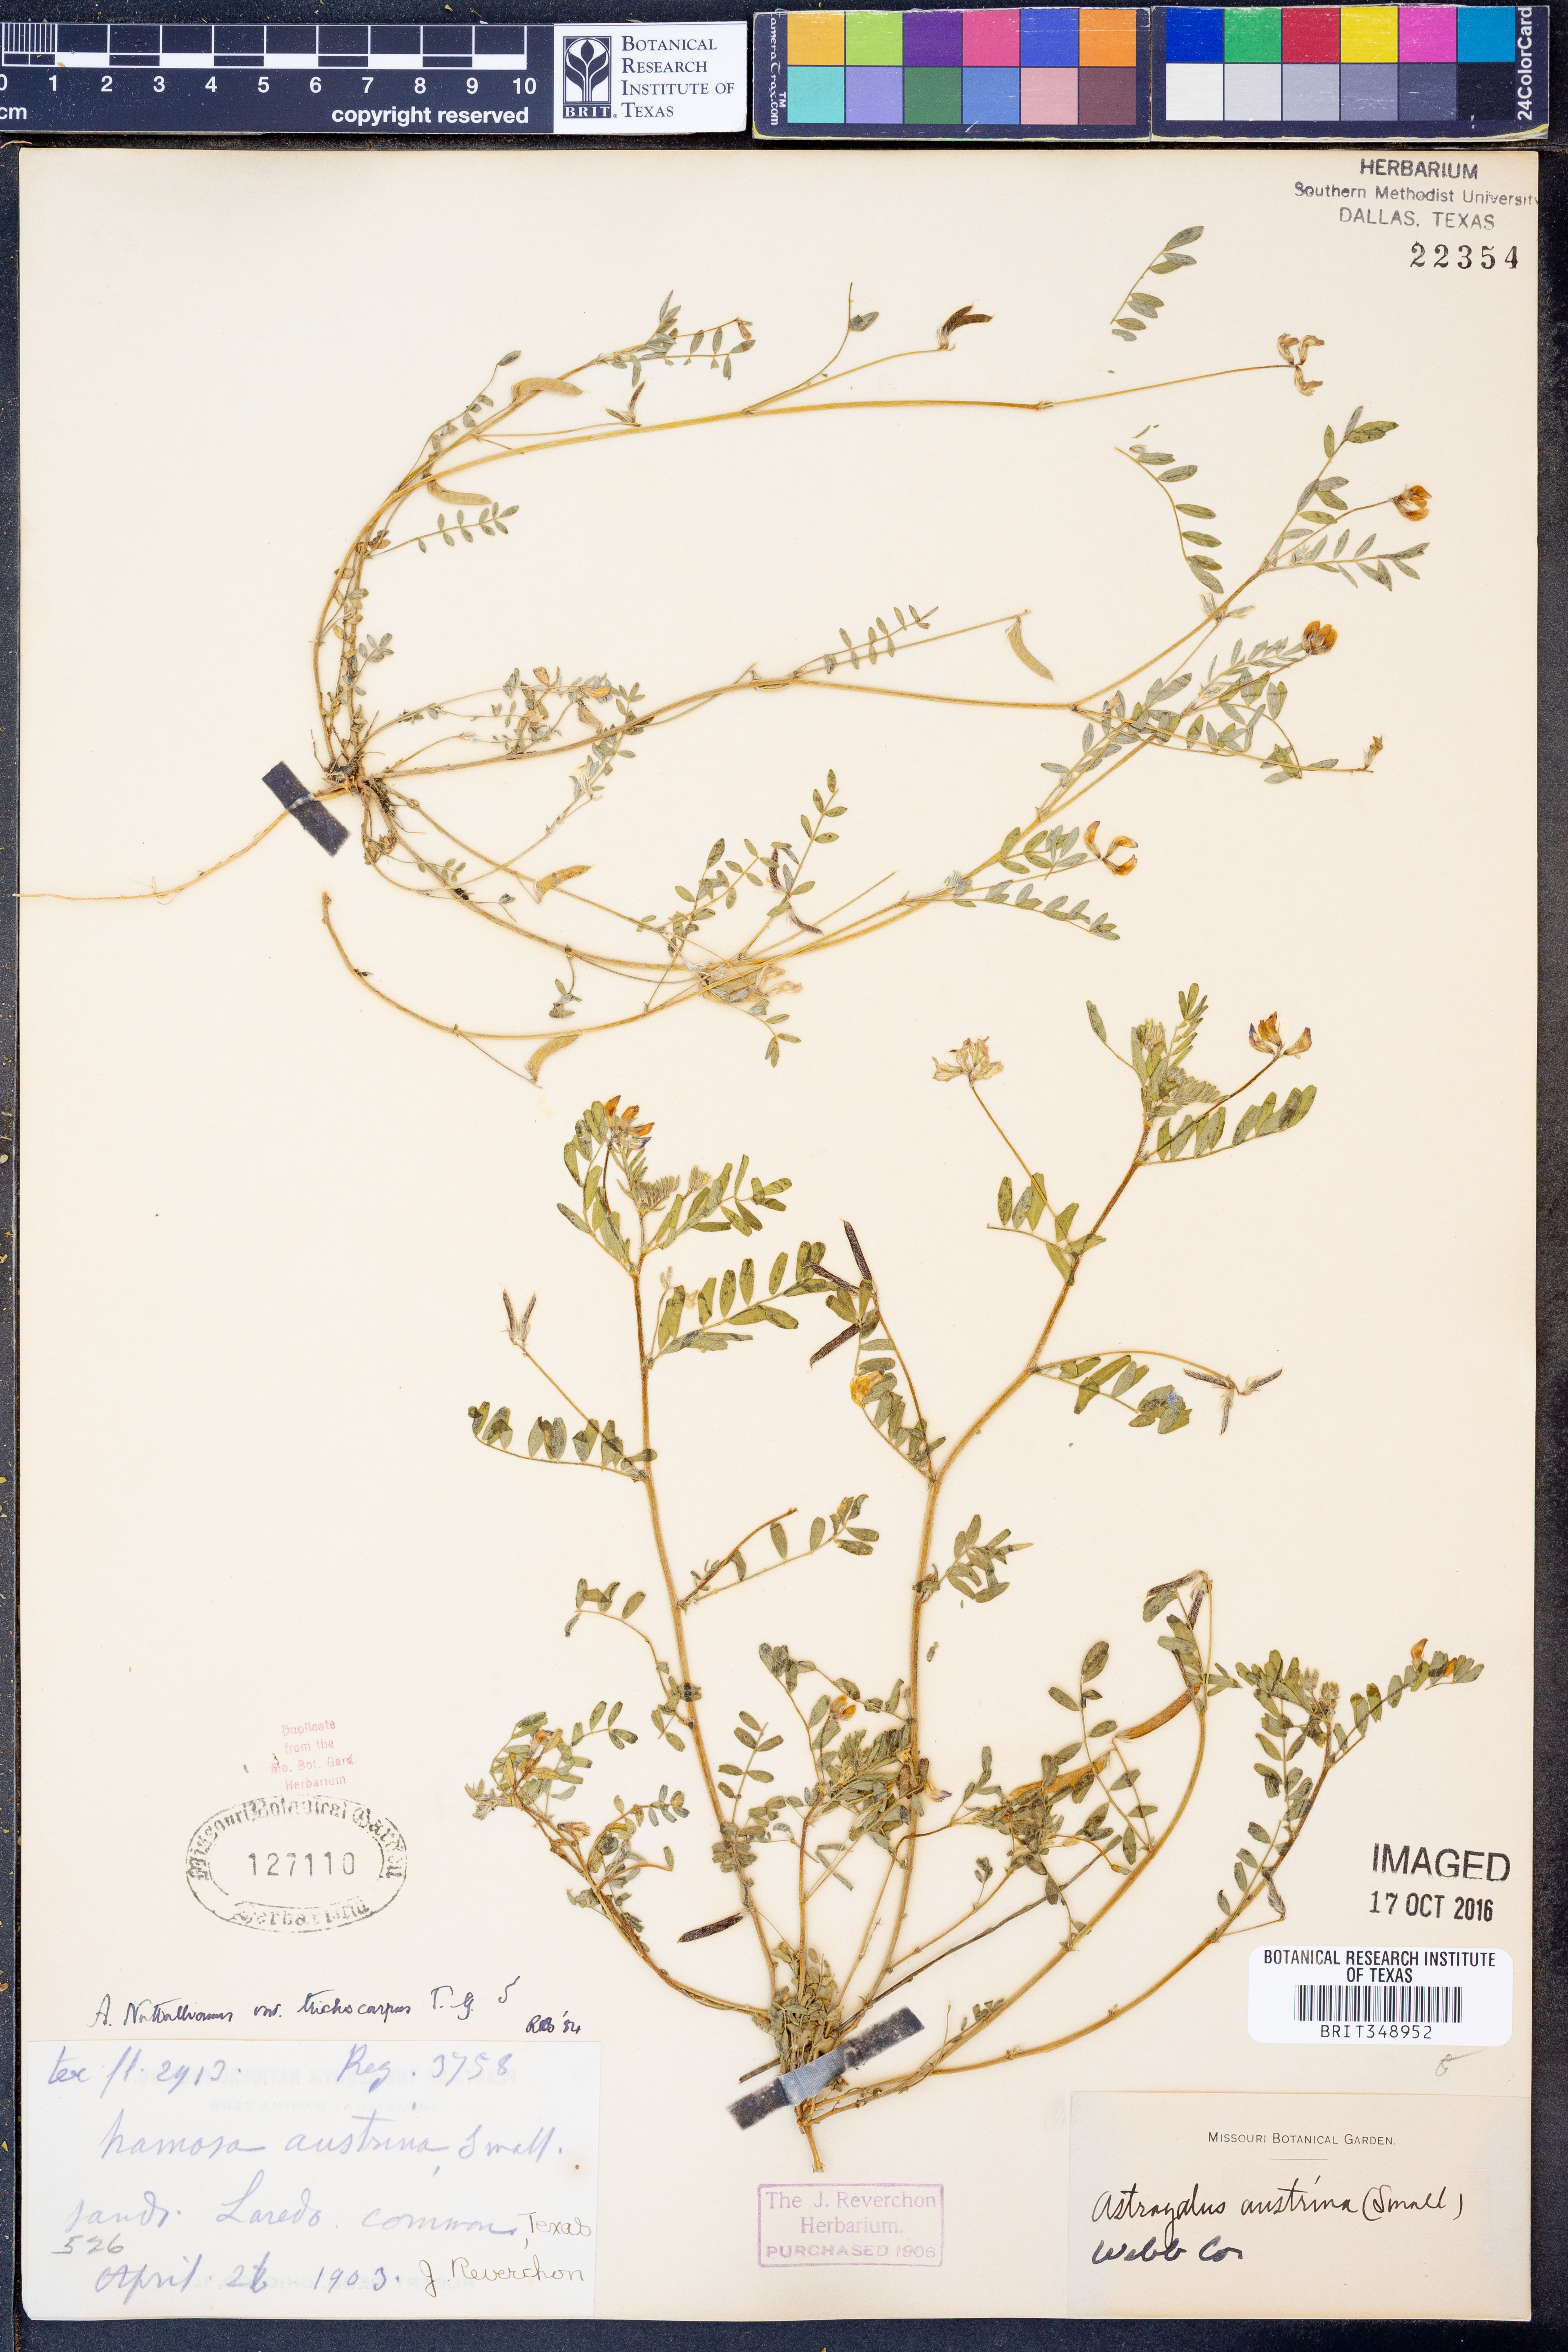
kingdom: Plantae
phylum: Tracheophyta
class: Magnoliopsida
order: Fabales
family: Fabaceae
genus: Astragalus
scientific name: Astragalus nuttallianus
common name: Smallflowered milkvetch
